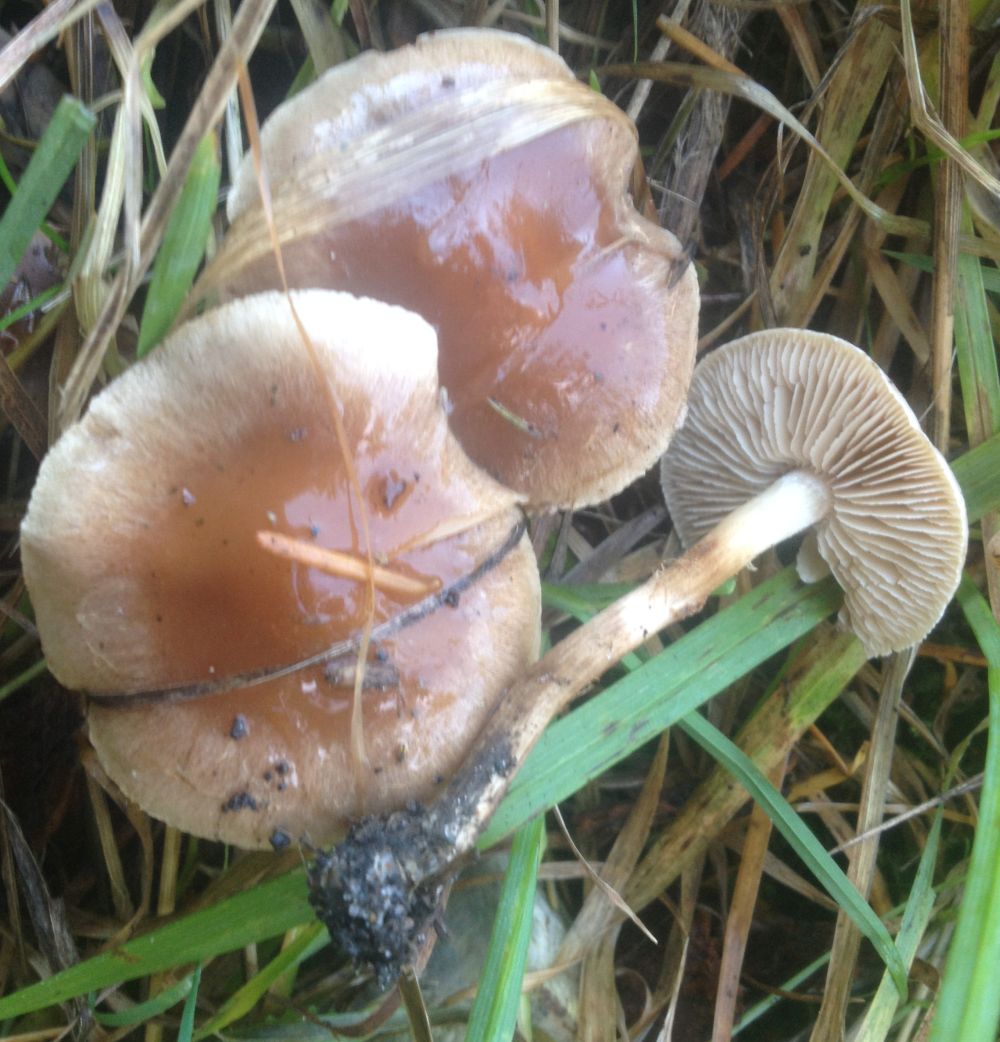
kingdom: Fungi
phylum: Basidiomycota
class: Agaricomycetes
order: Agaricales
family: Hymenogastraceae
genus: Hebeloma
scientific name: Hebeloma mesophaeum
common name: lerbrun tåreblad
